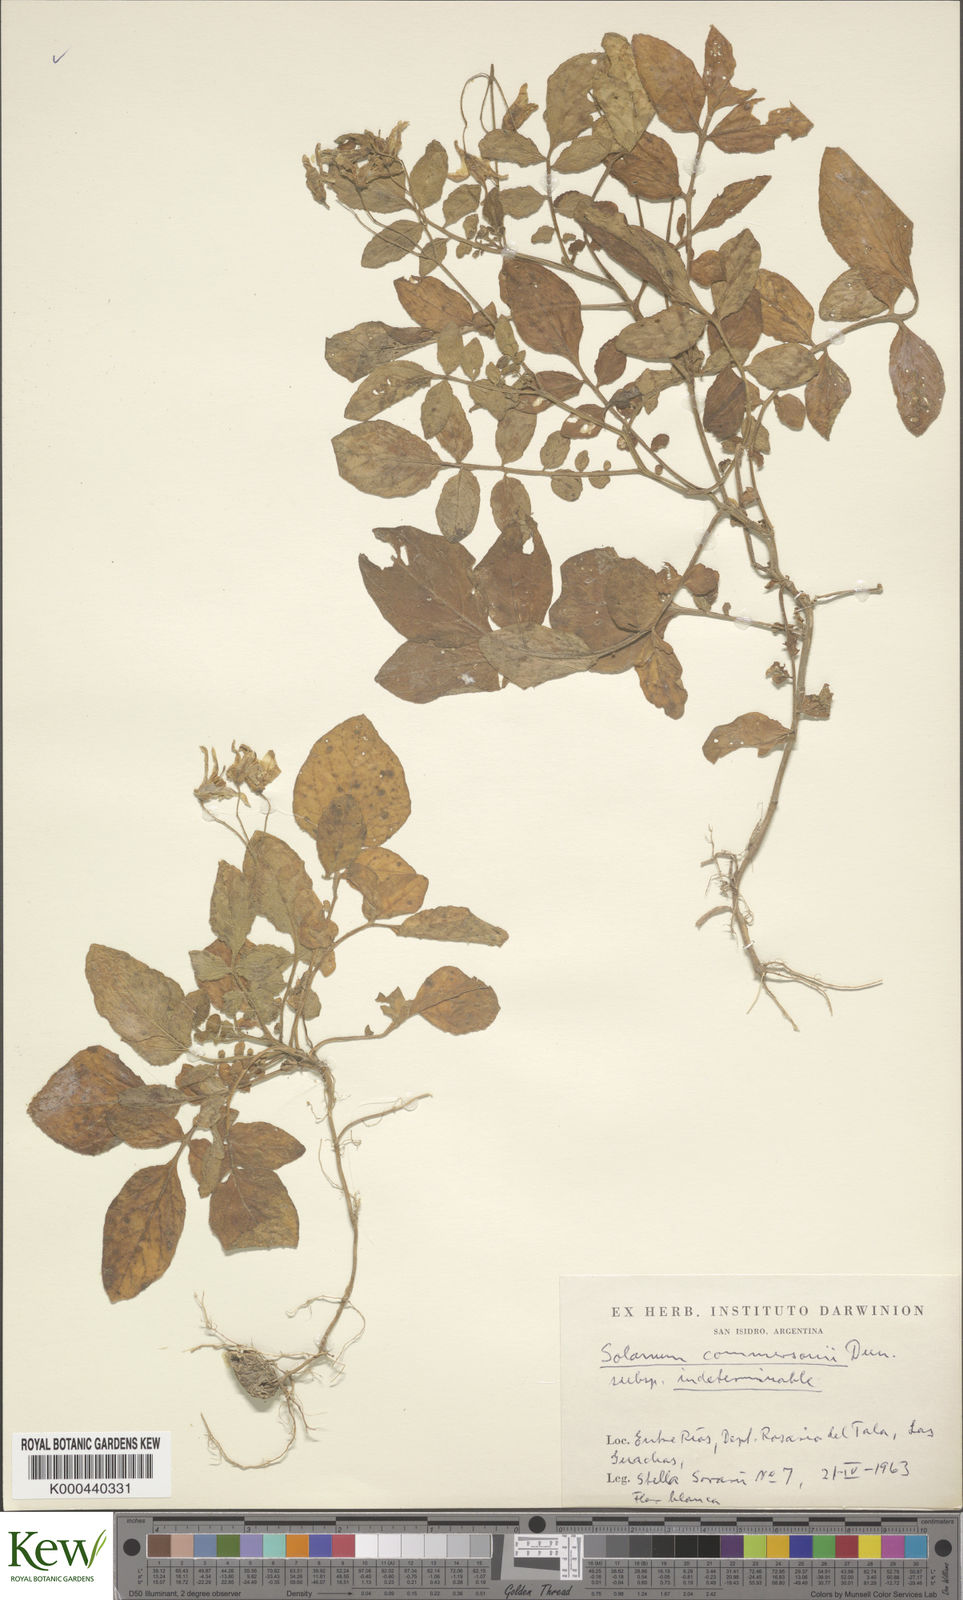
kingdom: Plantae
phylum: Tracheophyta
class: Magnoliopsida
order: Solanales
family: Solanaceae
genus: Solanum
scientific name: Solanum commersonii
